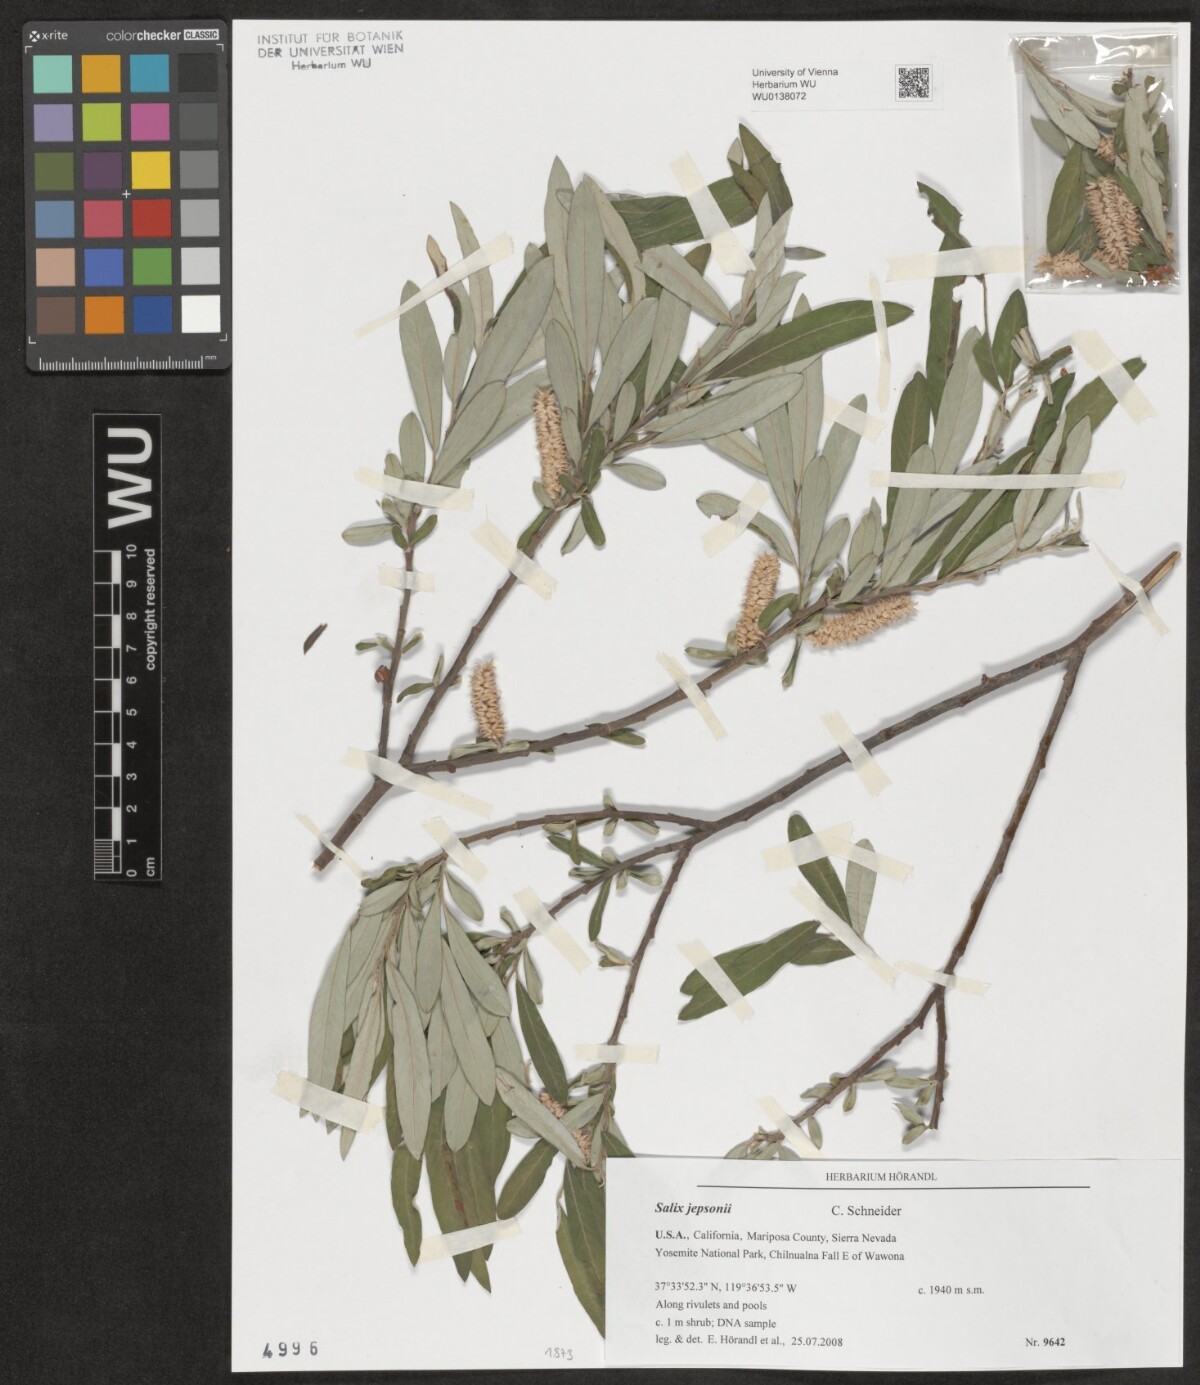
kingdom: Plantae
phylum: Tracheophyta
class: Magnoliopsida
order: Malpighiales
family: Salicaceae
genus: Salix
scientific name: Salix jepsonii
